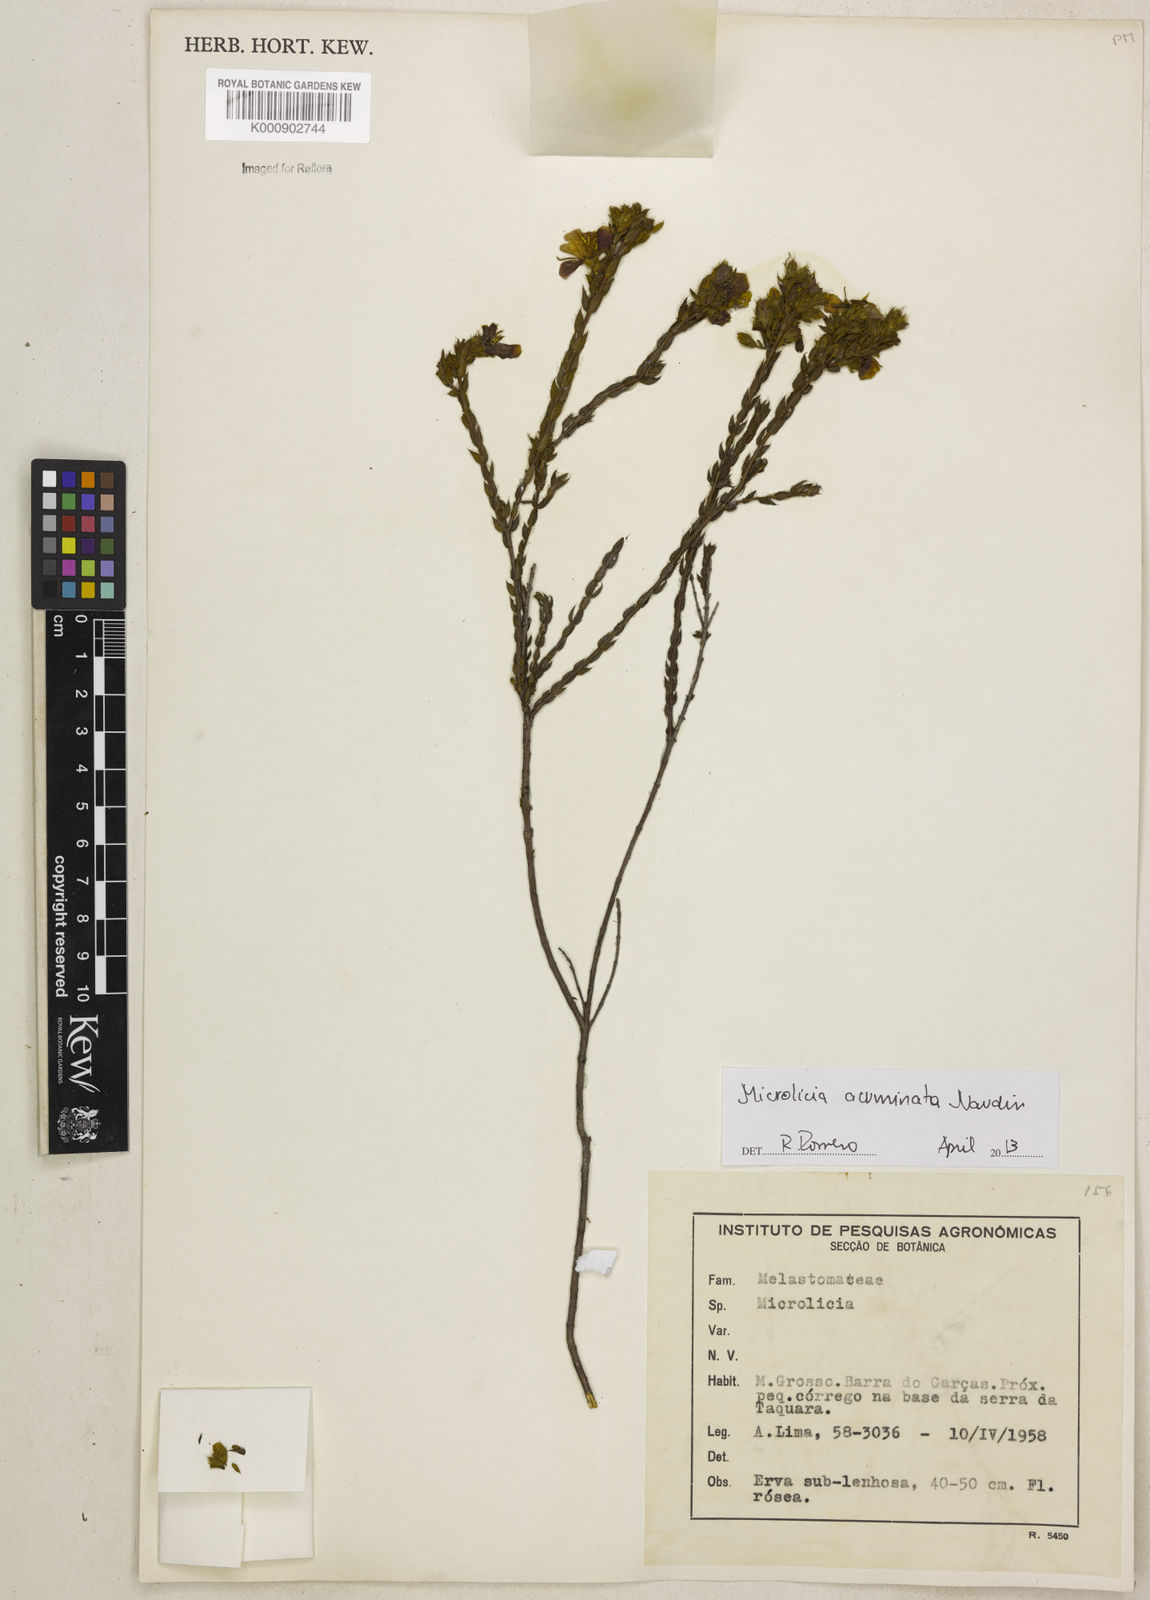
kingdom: Plantae
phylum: Tracheophyta
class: Magnoliopsida
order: Myrtales
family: Melastomataceae
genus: Microlicia
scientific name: Microlicia hirticalyx
